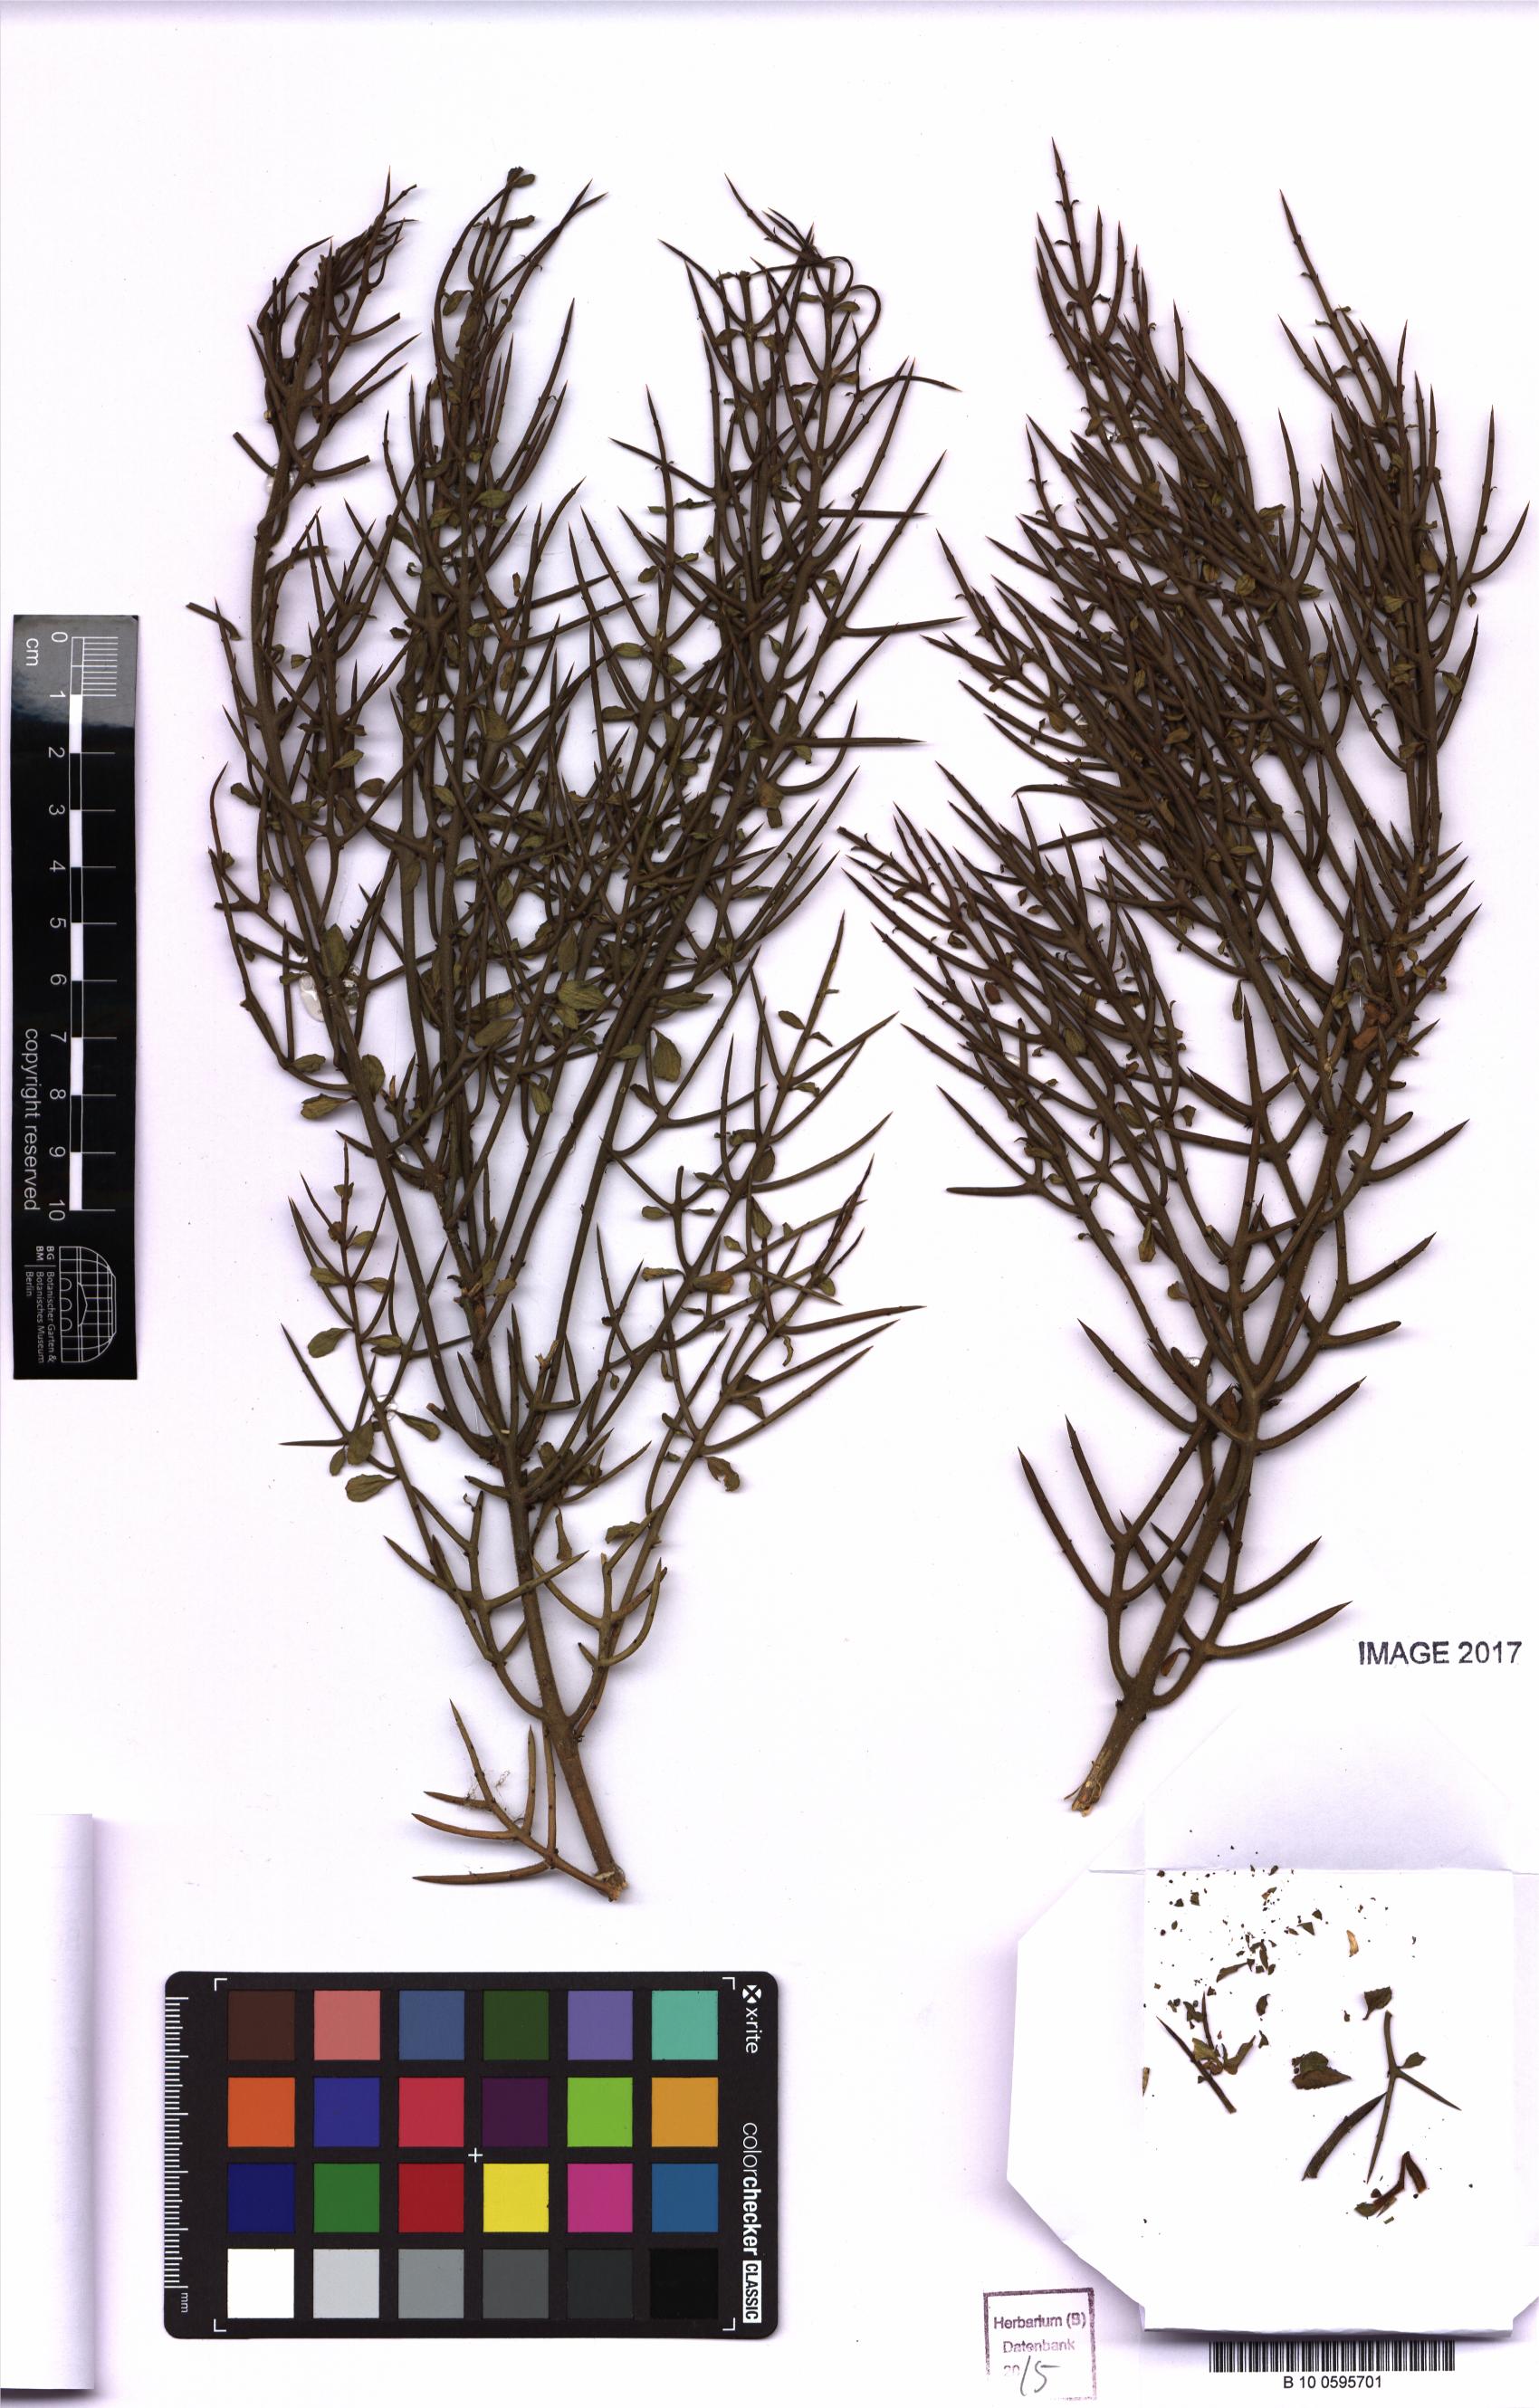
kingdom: Plantae
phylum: Tracheophyta
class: Magnoliopsida
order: Rosales
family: Rhamnaceae
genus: Colletia
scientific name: Colletia
